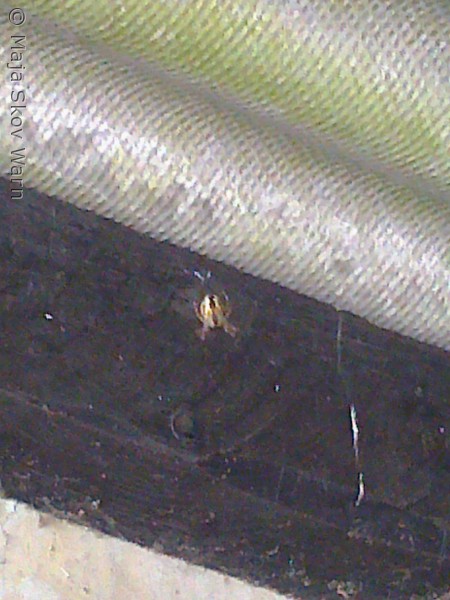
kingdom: Animalia
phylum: Arthropoda
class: Arachnida
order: Araneae
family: Araneidae
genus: Araneus
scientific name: Araneus diadematus
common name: Korsedderkop
